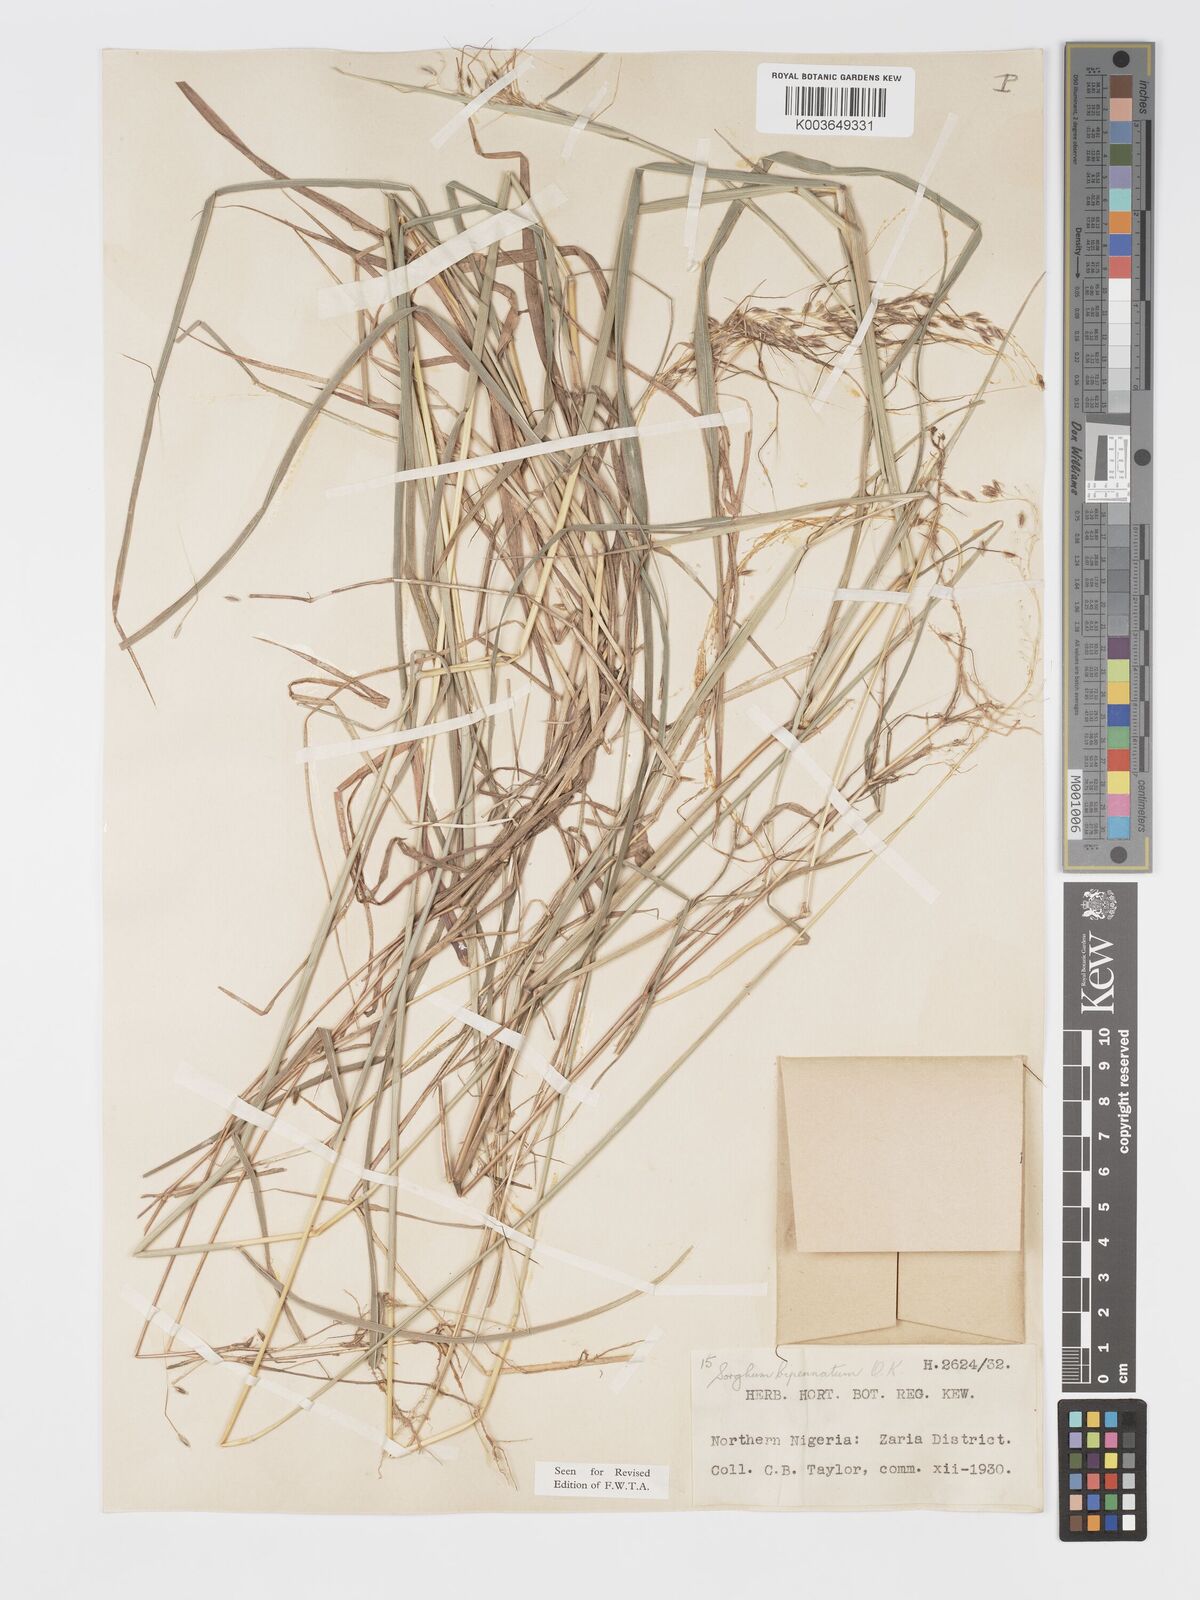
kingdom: Plantae
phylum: Tracheophyta
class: Liliopsida
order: Poales
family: Poaceae
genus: Sorghastrum
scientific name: Sorghastrum incompletum
